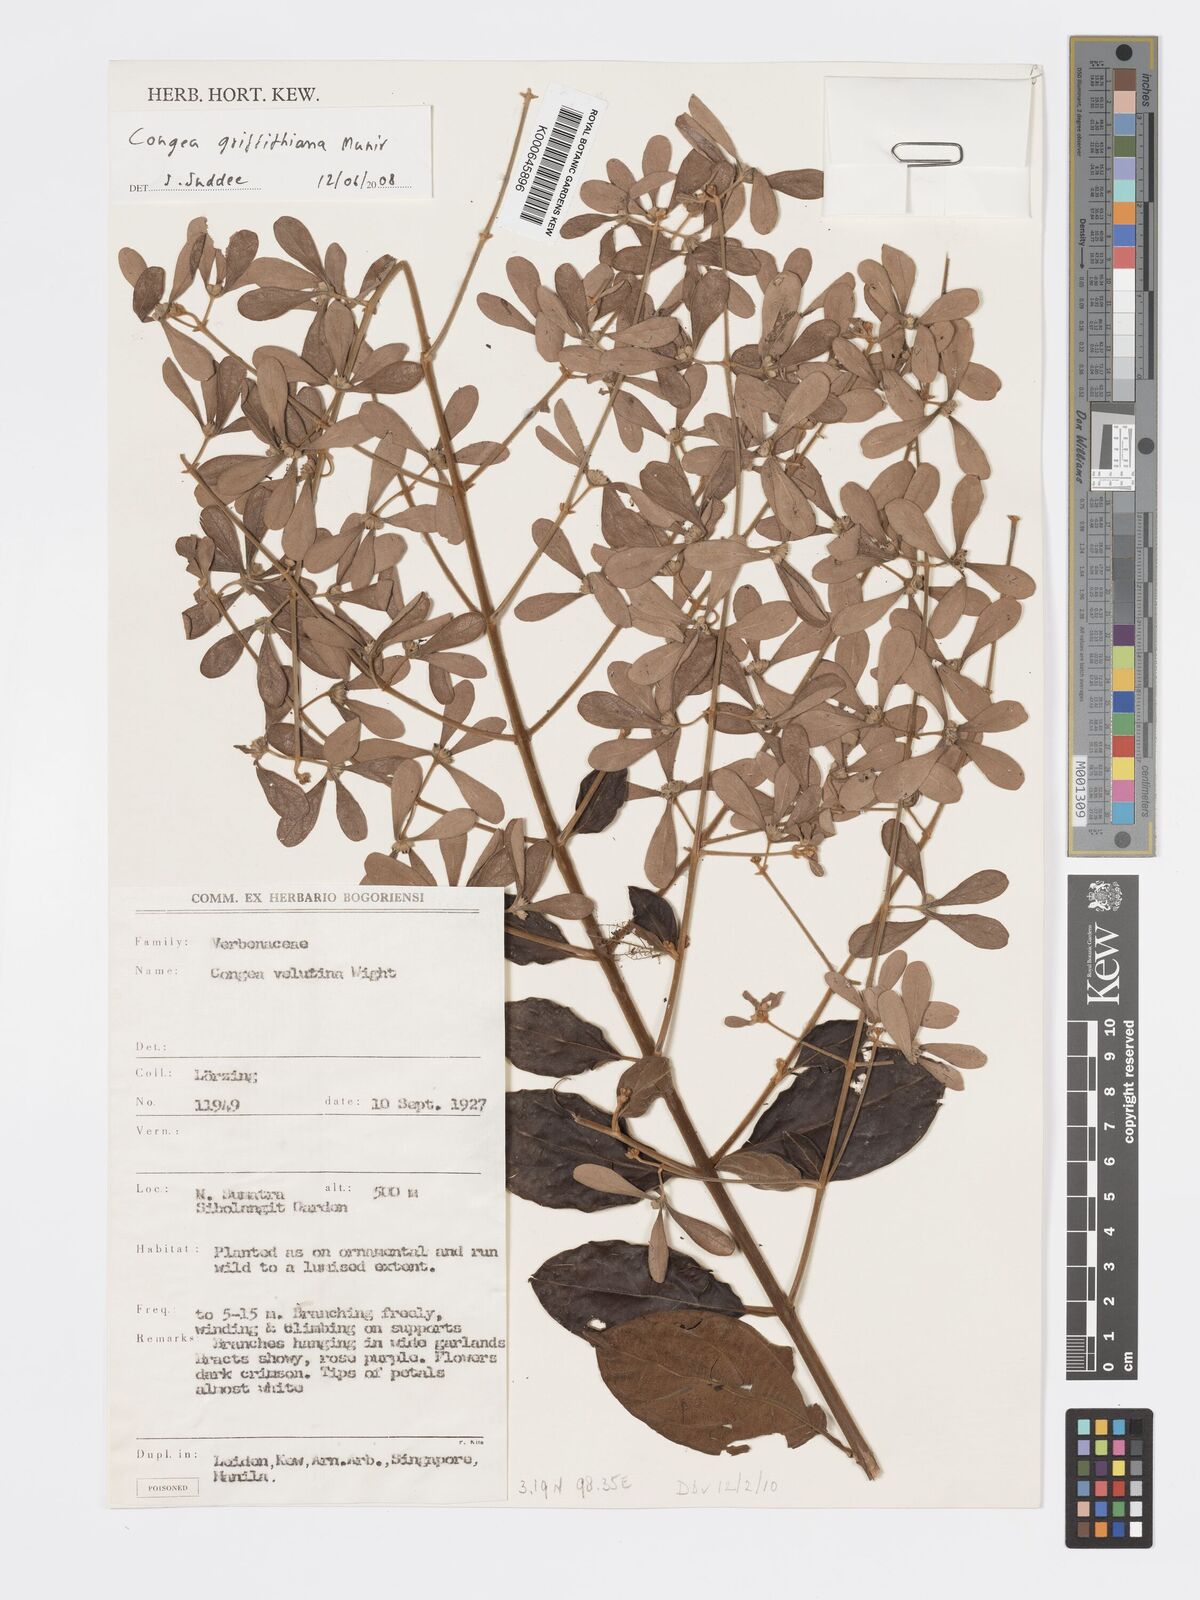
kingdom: Plantae
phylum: Tracheophyta
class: Magnoliopsida
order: Lamiales
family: Lamiaceae
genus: Congea
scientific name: Congea
